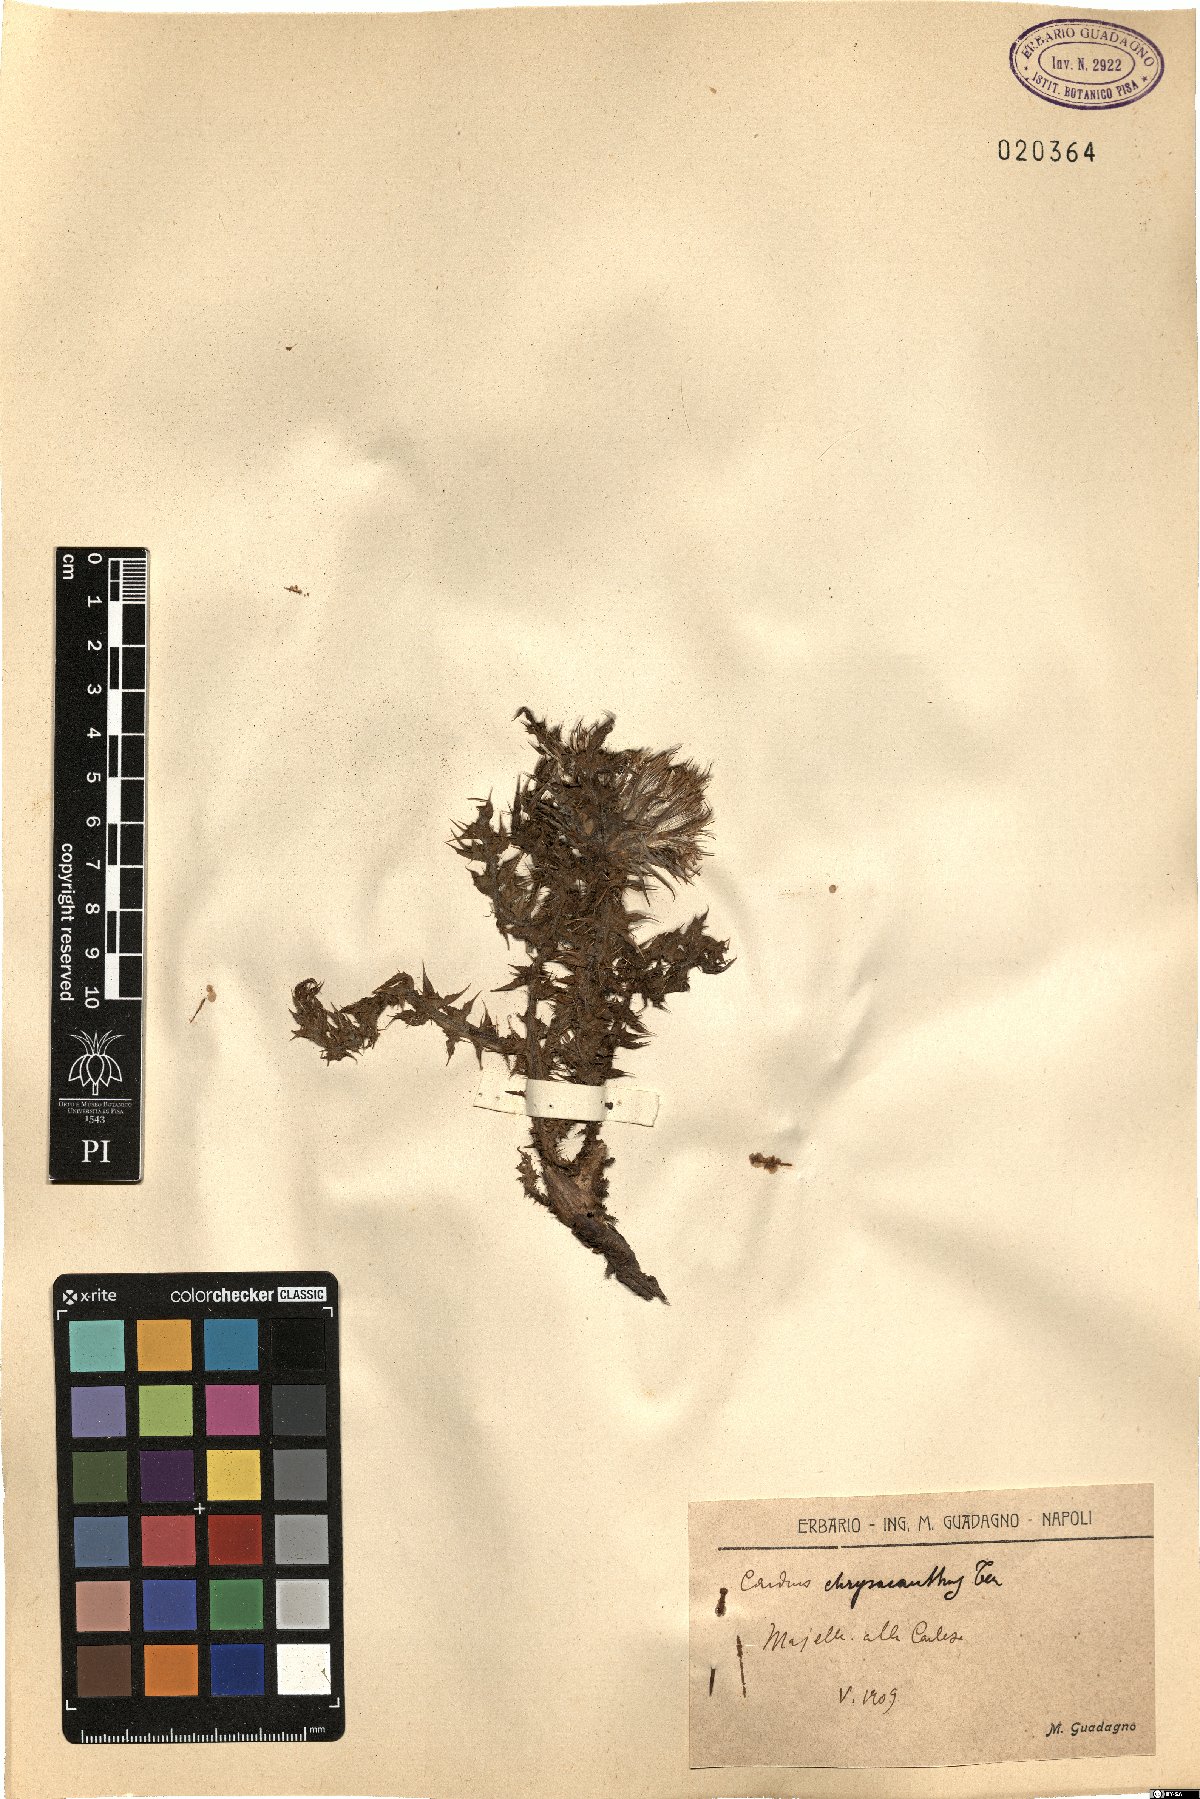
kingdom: Plantae
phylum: Tracheophyta
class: Magnoliopsida
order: Asterales
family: Asteraceae
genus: Carduus
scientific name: Carduus chrysacanthus
